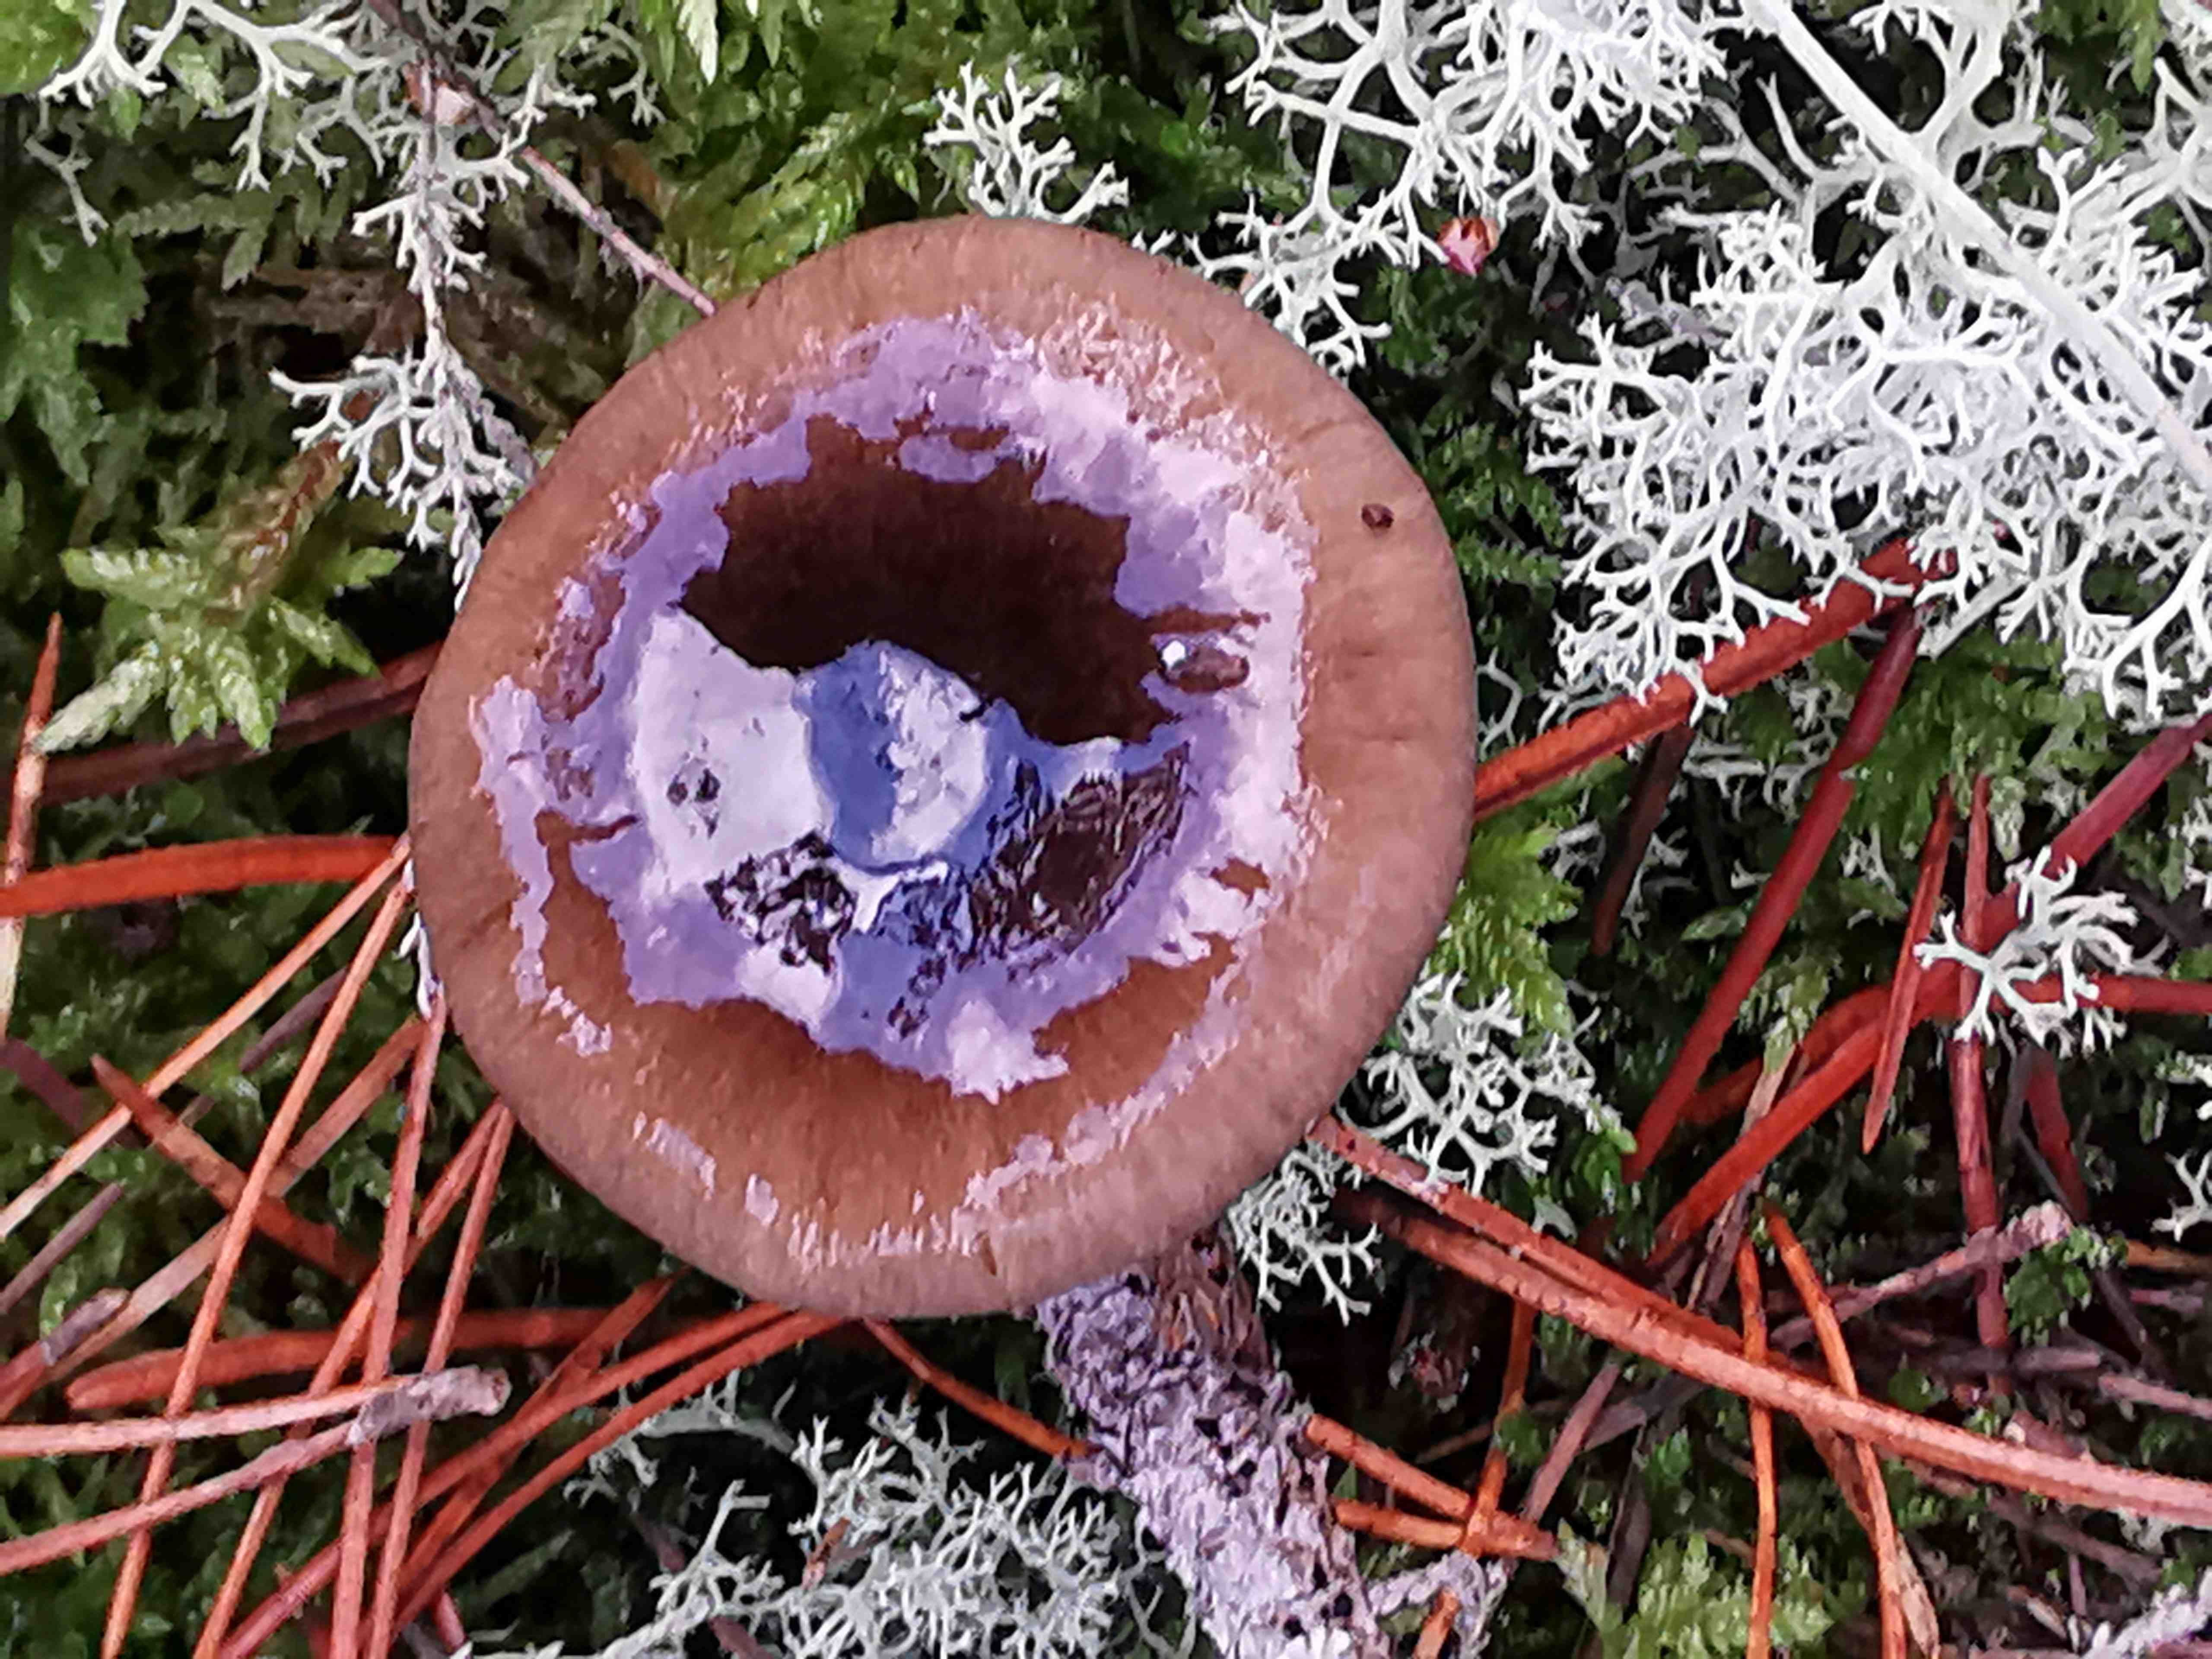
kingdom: Fungi
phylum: Basidiomycota
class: Agaricomycetes
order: Agaricales
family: Hygrophoraceae
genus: Hygrophorus
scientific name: Hygrophorus hypothejus
